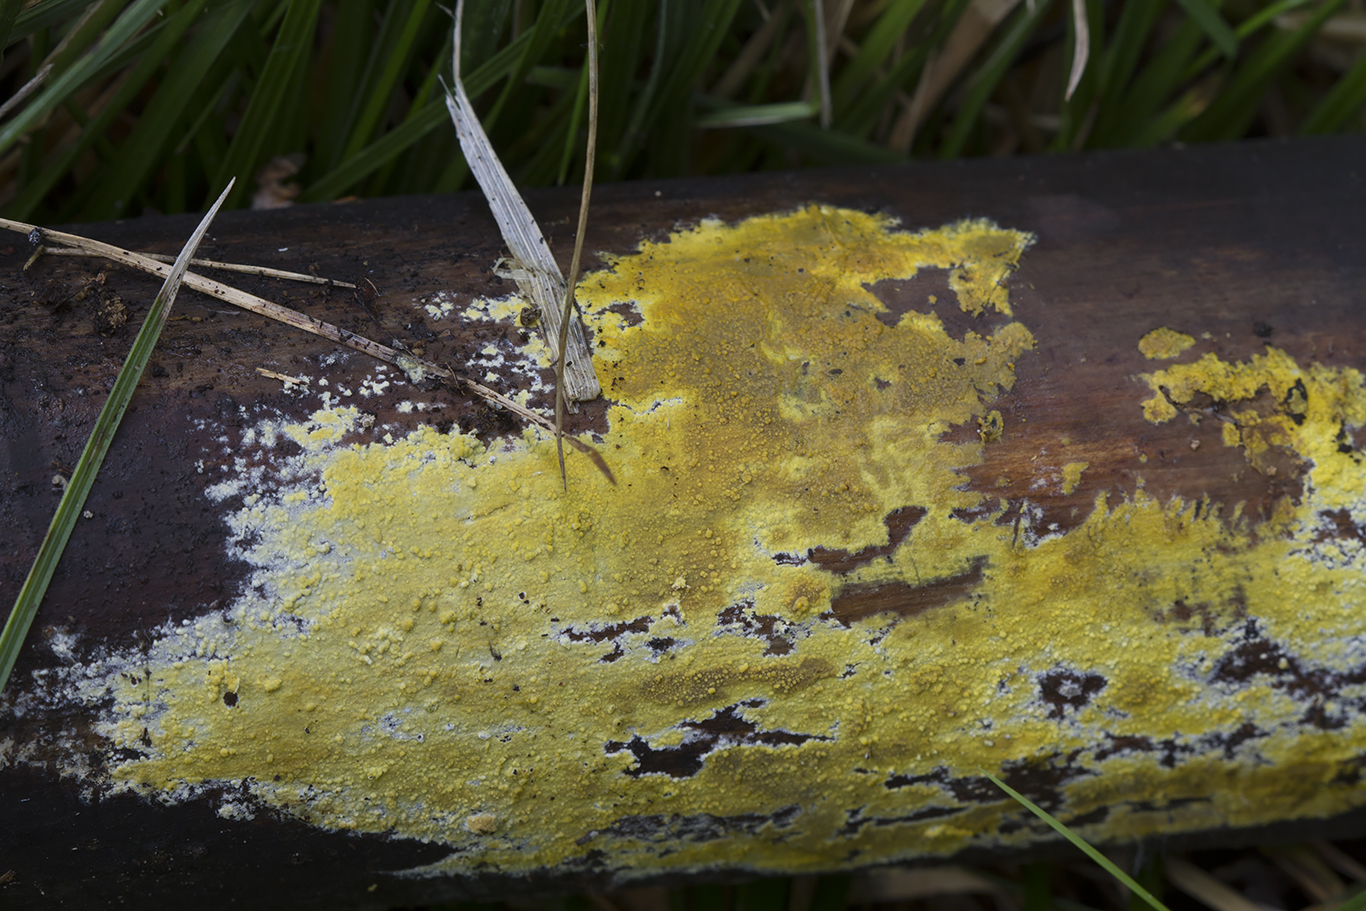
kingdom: Fungi
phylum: Basidiomycota
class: Agaricomycetes
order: Polyporales
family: Meruliaceae
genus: Phlebiodontia
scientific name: Phlebiodontia subochracea
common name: svovl-åresvamp
